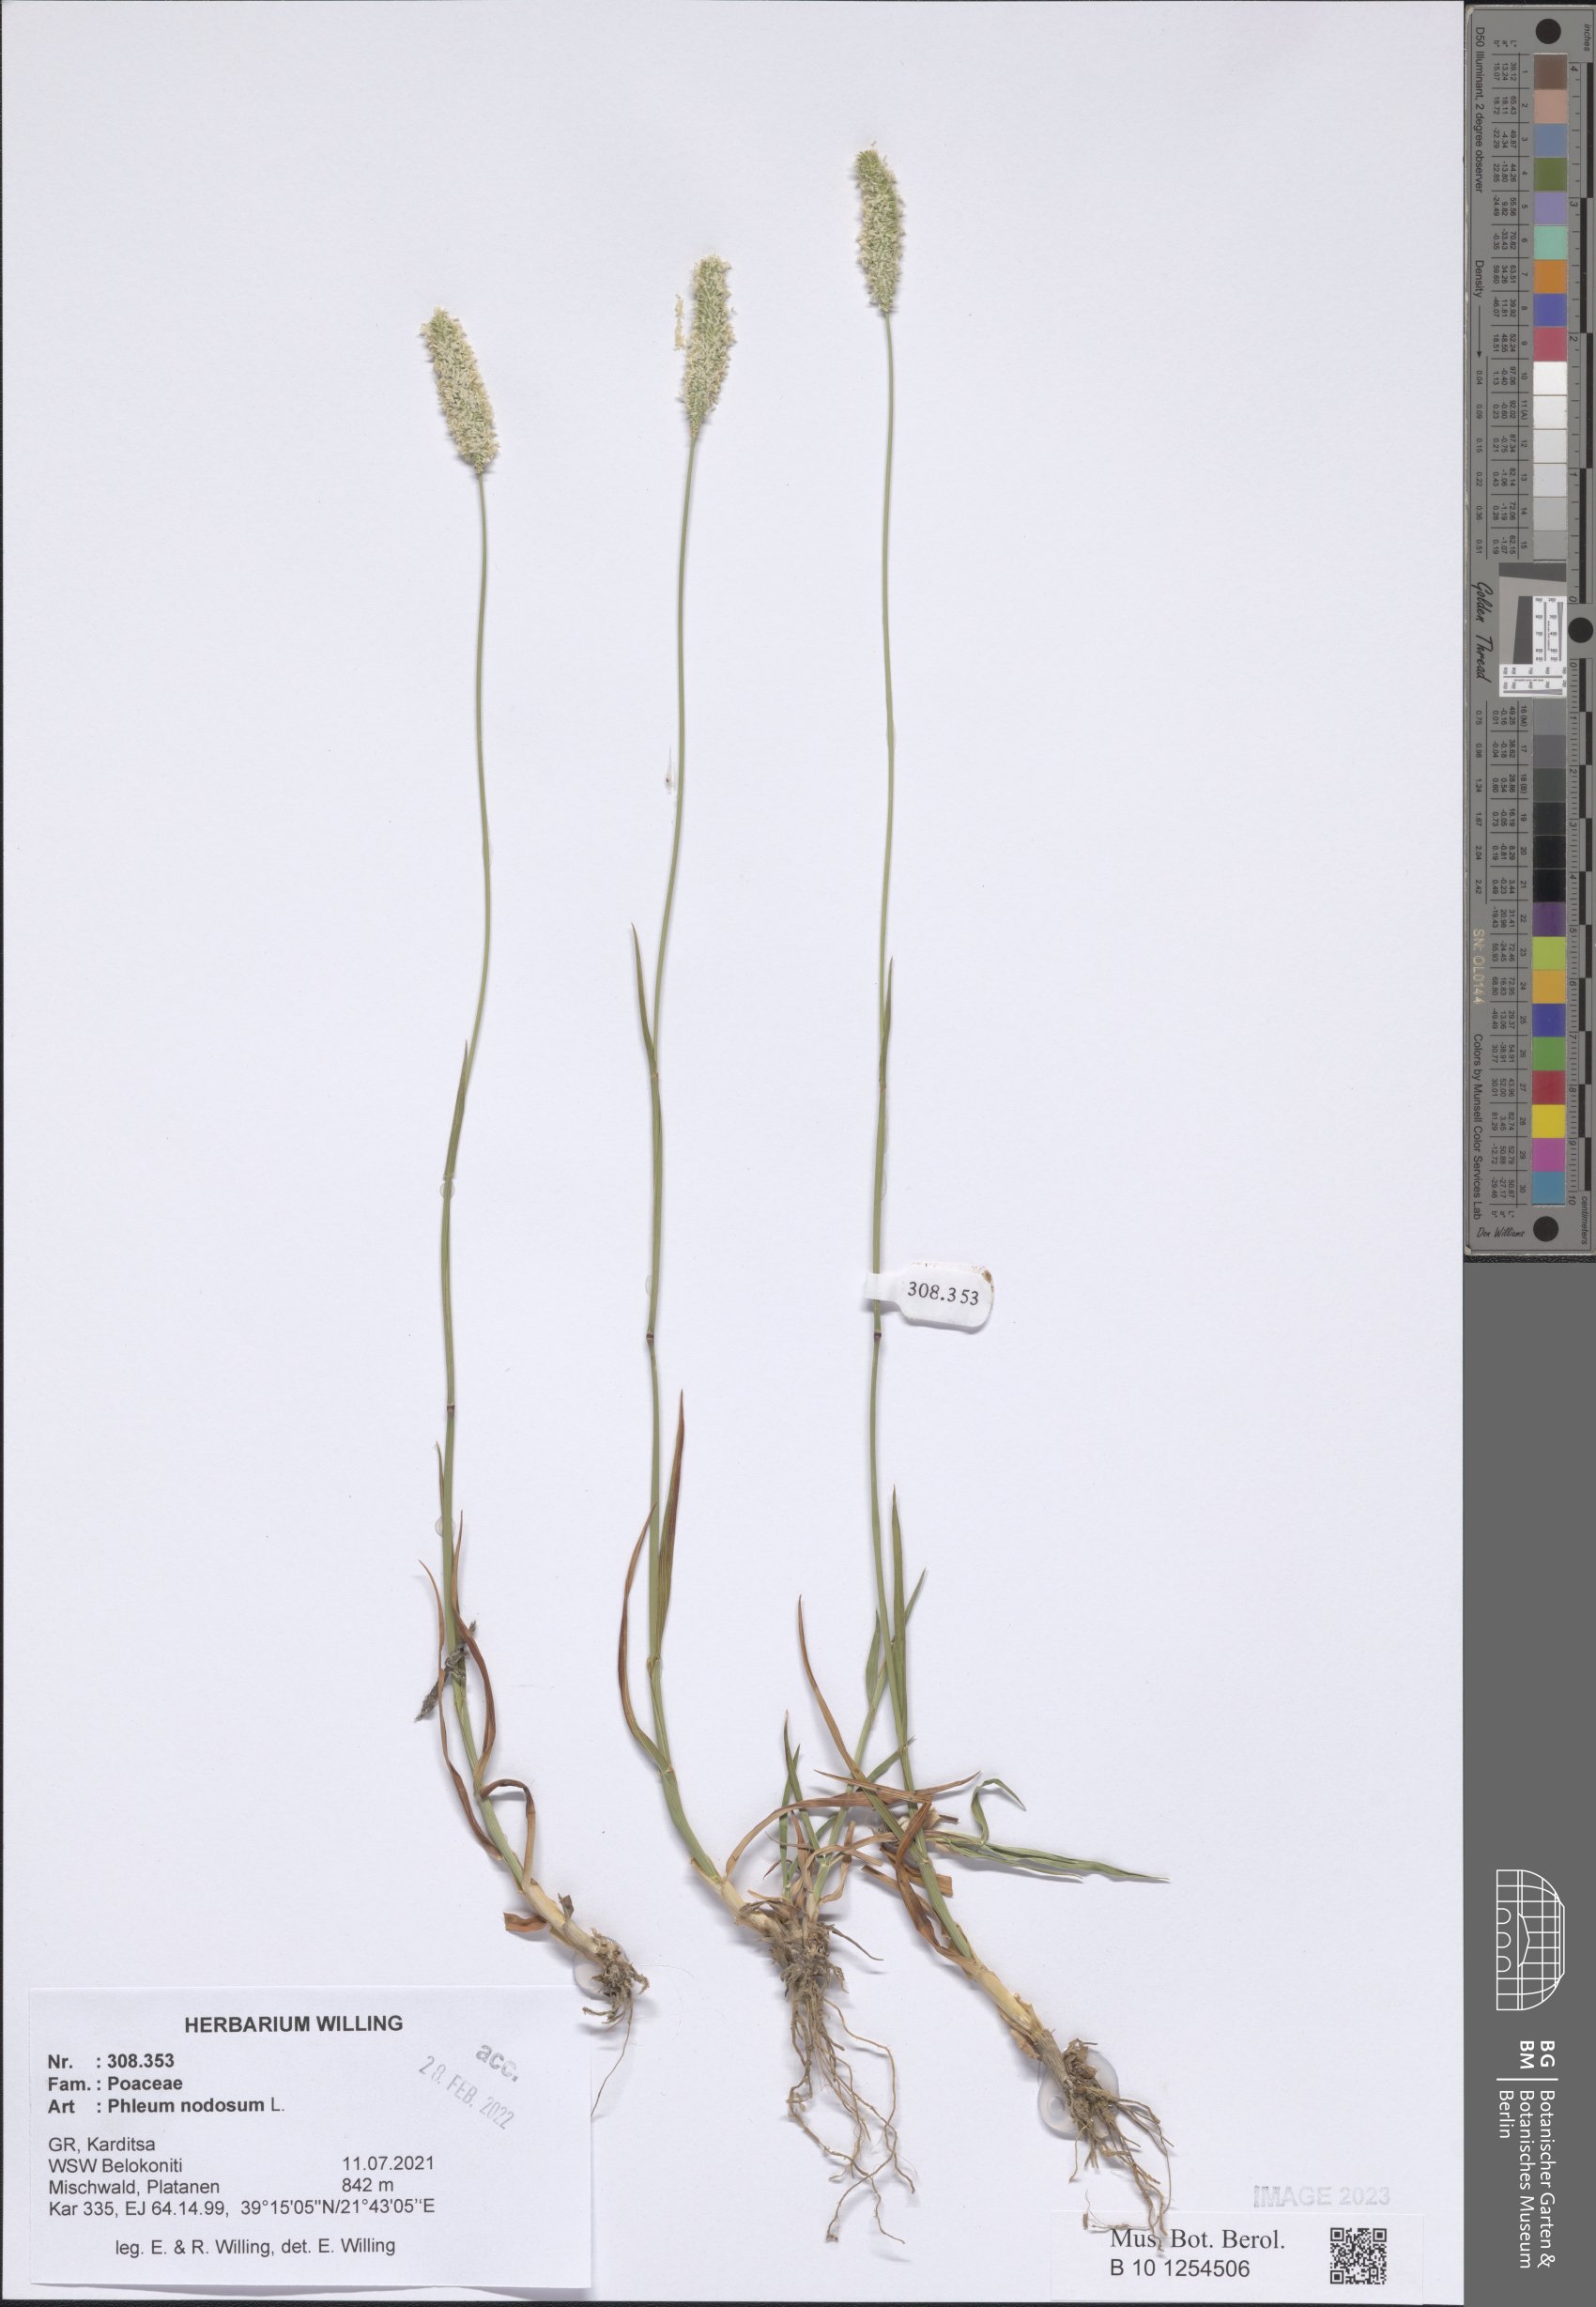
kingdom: Plantae
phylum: Tracheophyta
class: Liliopsida
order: Poales
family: Poaceae
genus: Phleum
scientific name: Phleum pratense
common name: Timothy grass
